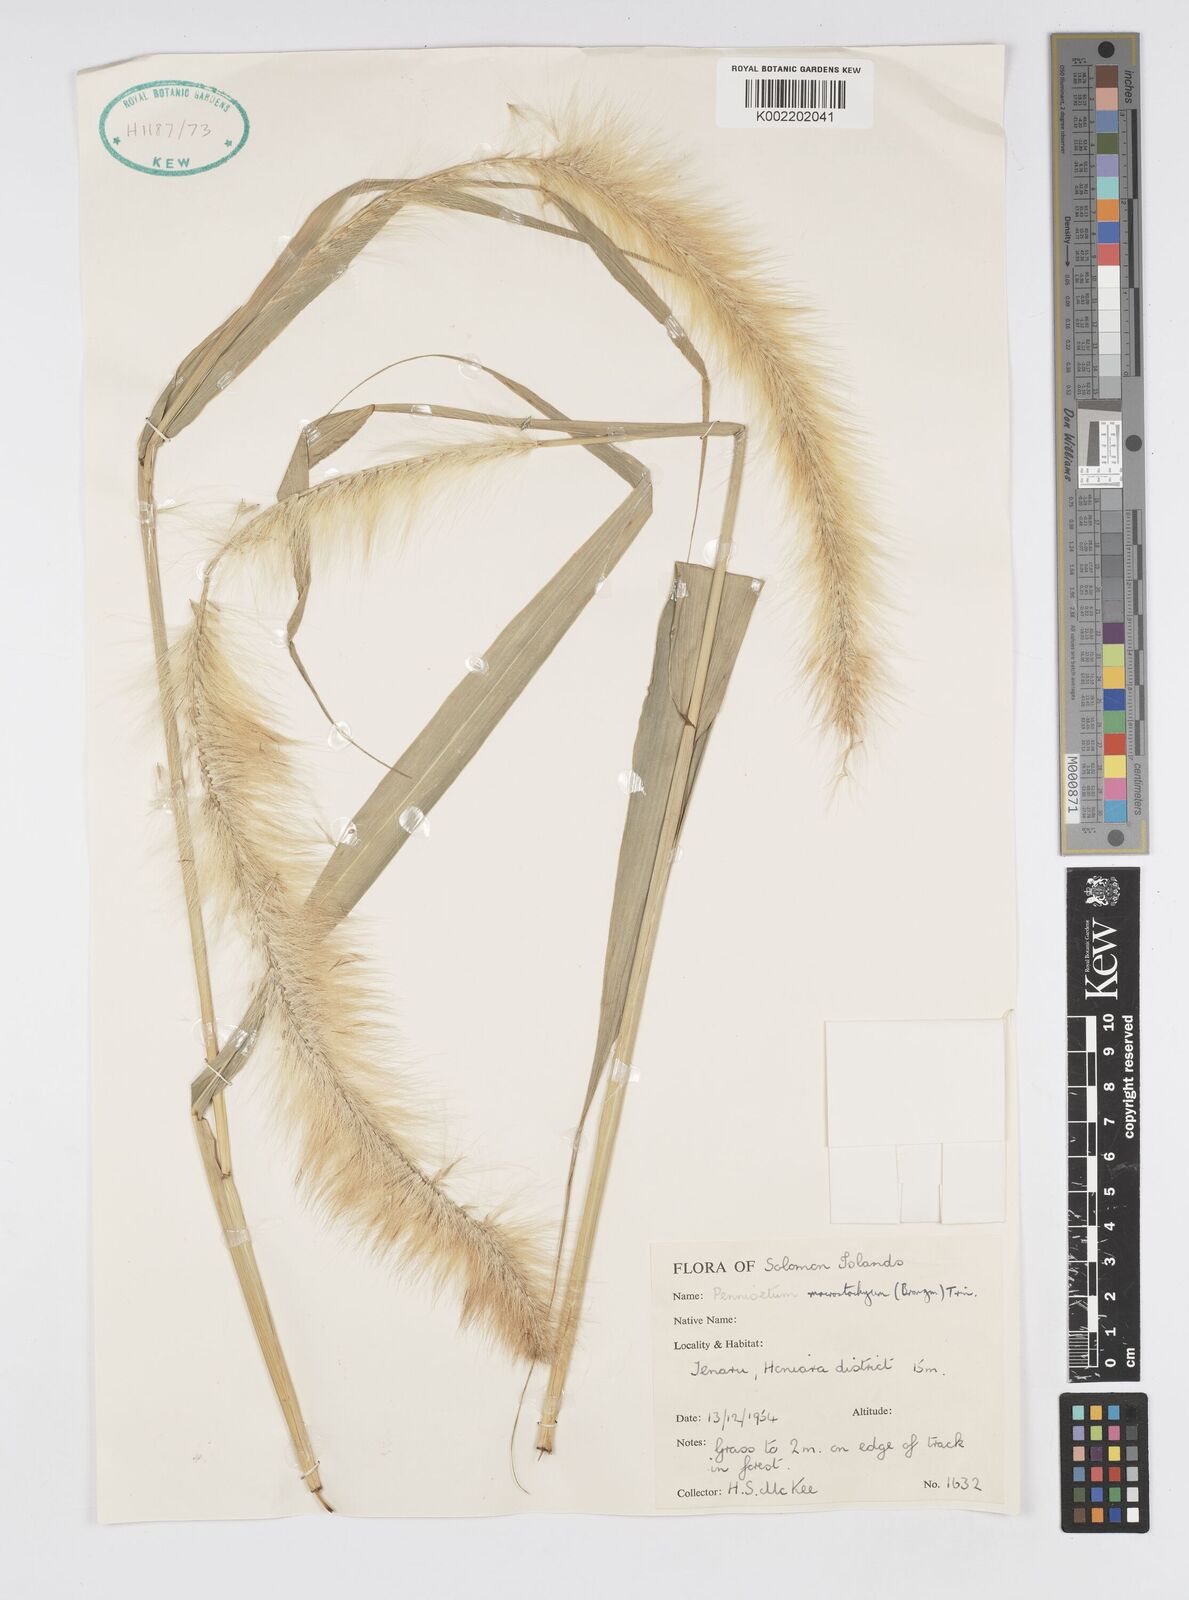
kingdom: Plantae
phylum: Tracheophyta
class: Liliopsida
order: Poales
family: Poaceae
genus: Cenchrus
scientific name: Cenchrus purpureus
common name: Elephant grass
